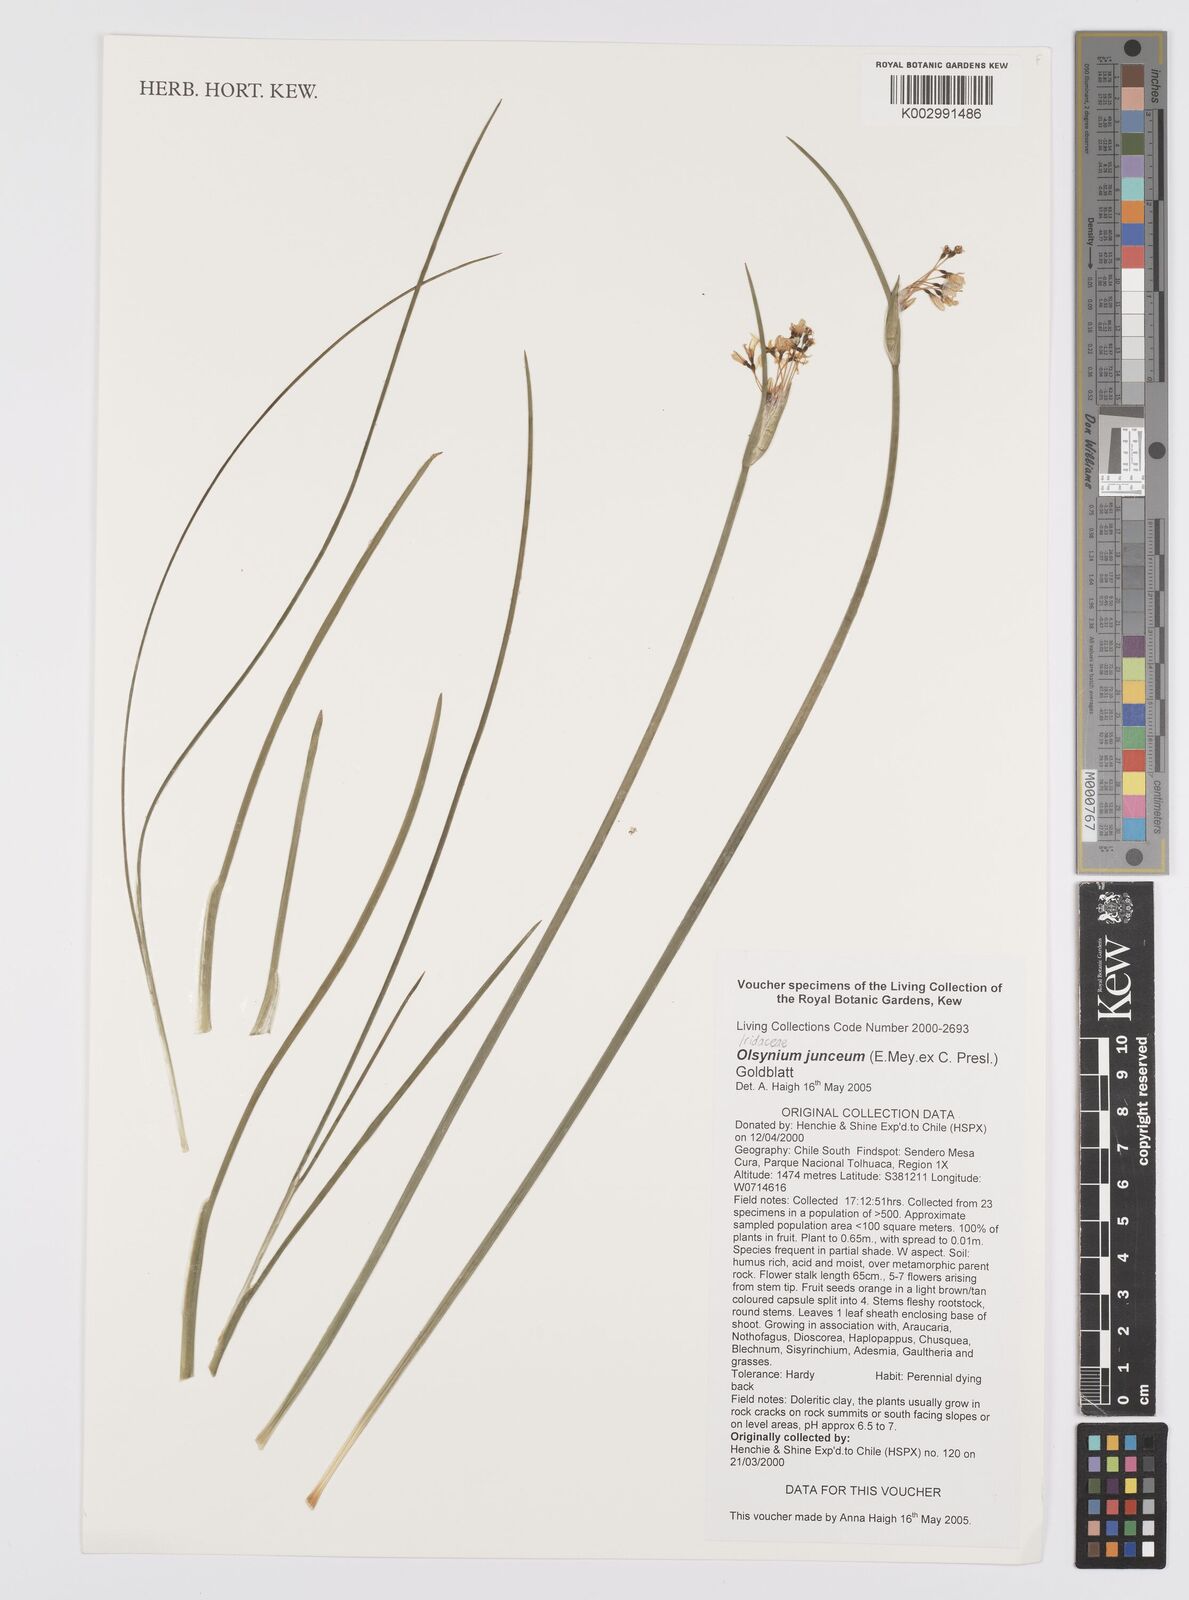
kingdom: Plantae
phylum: Tracheophyta
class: Liliopsida
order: Asparagales
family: Iridaceae
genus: Olsynium
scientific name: Olsynium junceum
